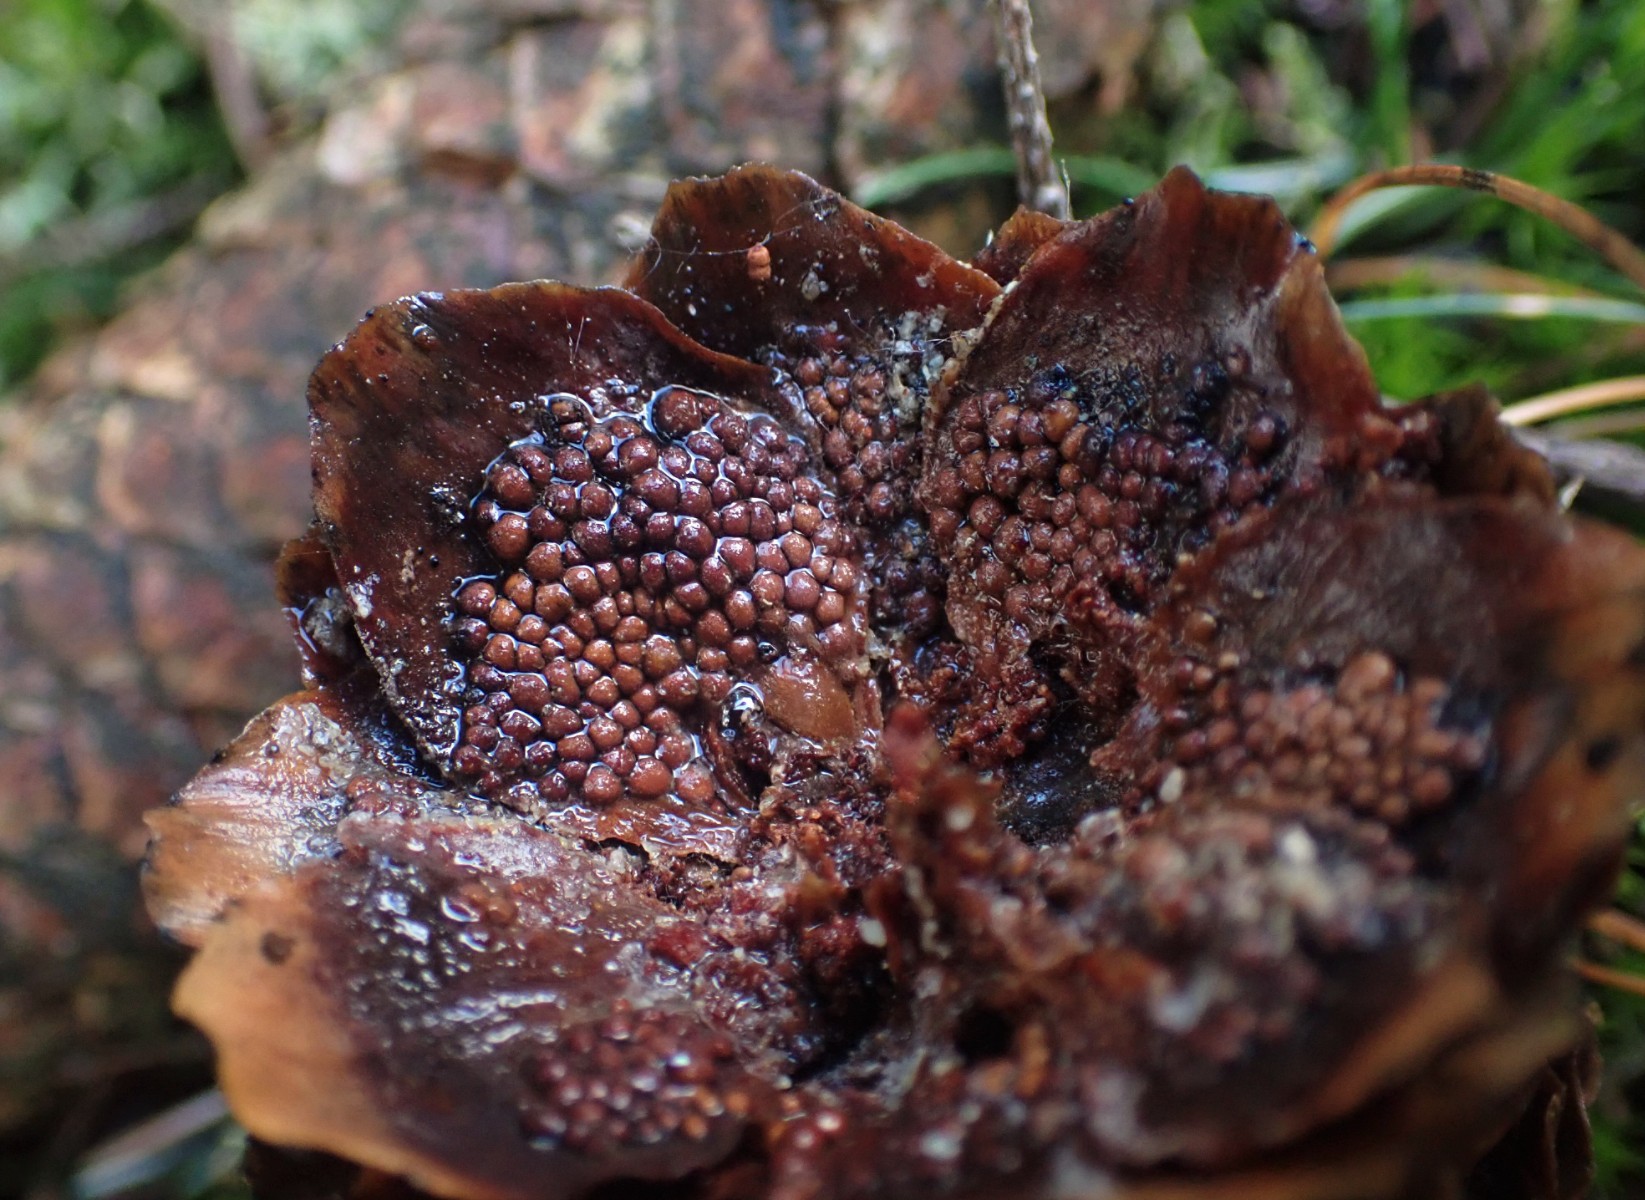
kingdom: Fungi
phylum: Basidiomycota
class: Pucciniomycetes
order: Pucciniales
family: Pucciniastraceae
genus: Thekopsora
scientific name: Thekopsora areolata
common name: grankogle-nålerust
